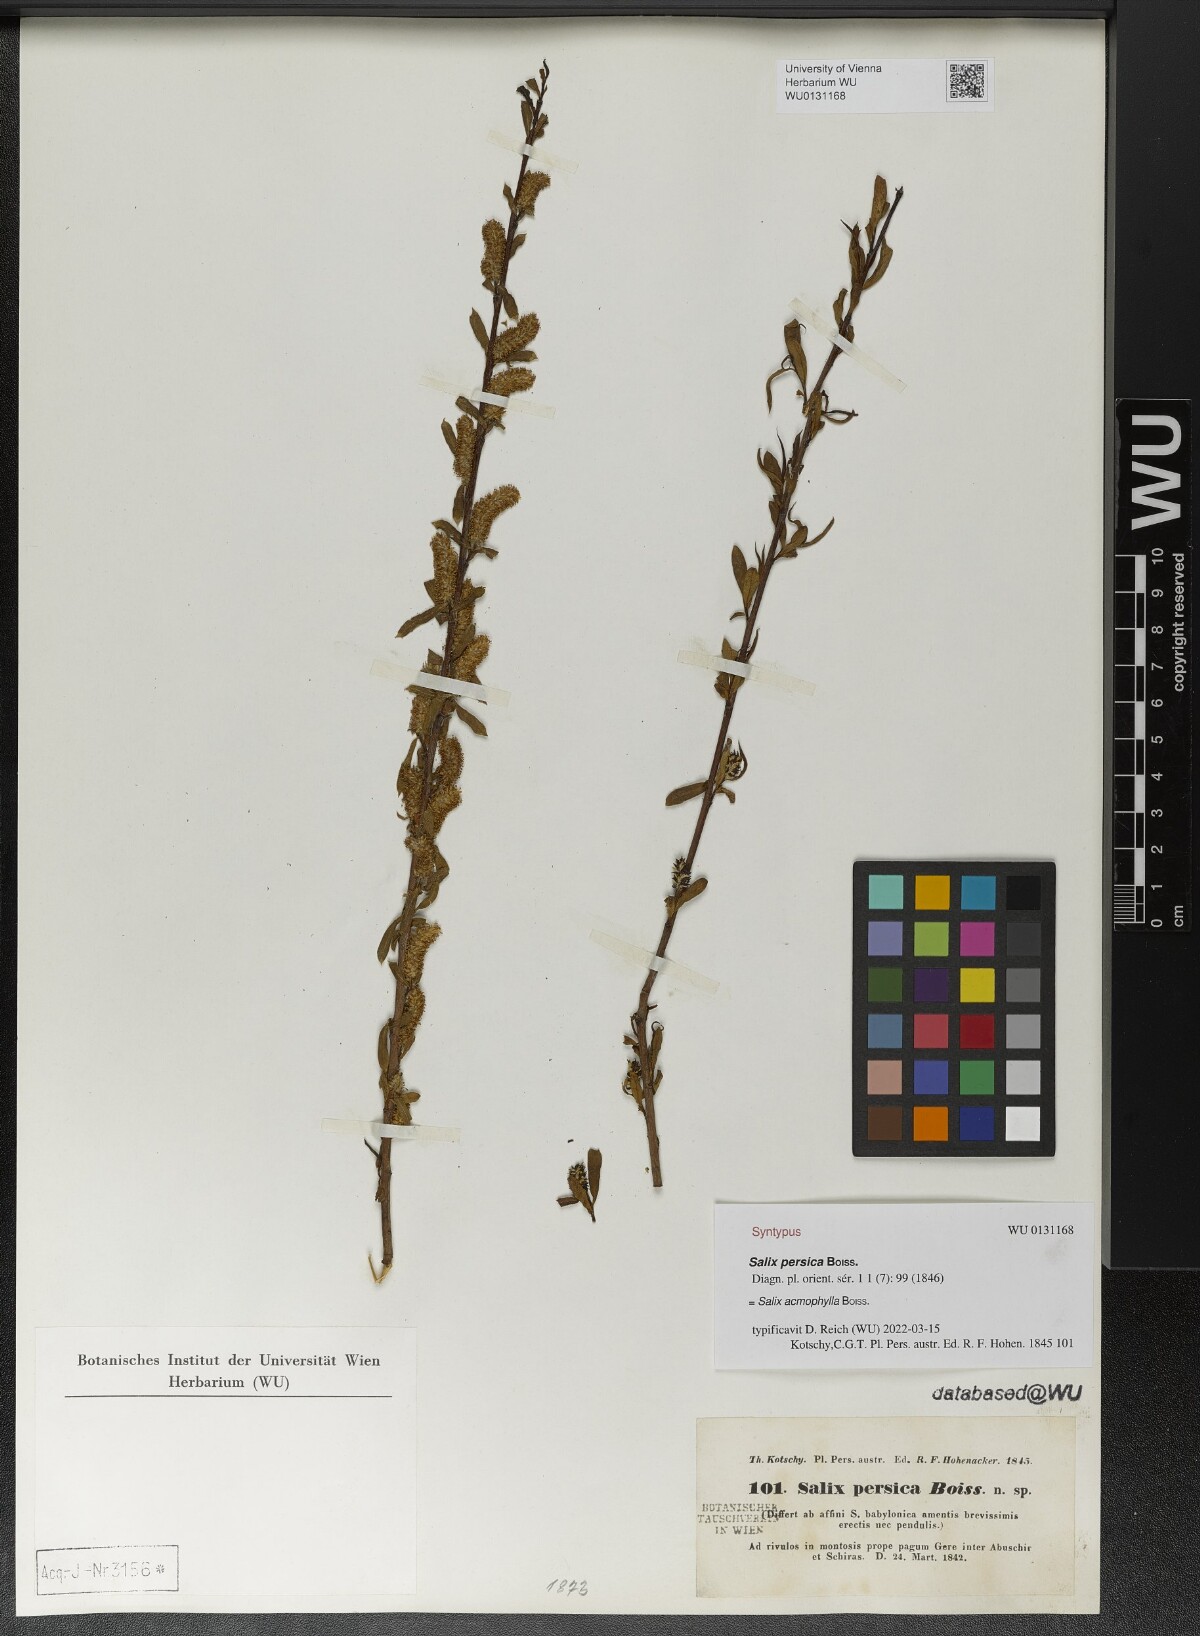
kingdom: Plantae
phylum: Tracheophyta
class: Magnoliopsida
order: Malpighiales
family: Salicaceae
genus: Salix
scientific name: Salix acmophylla
